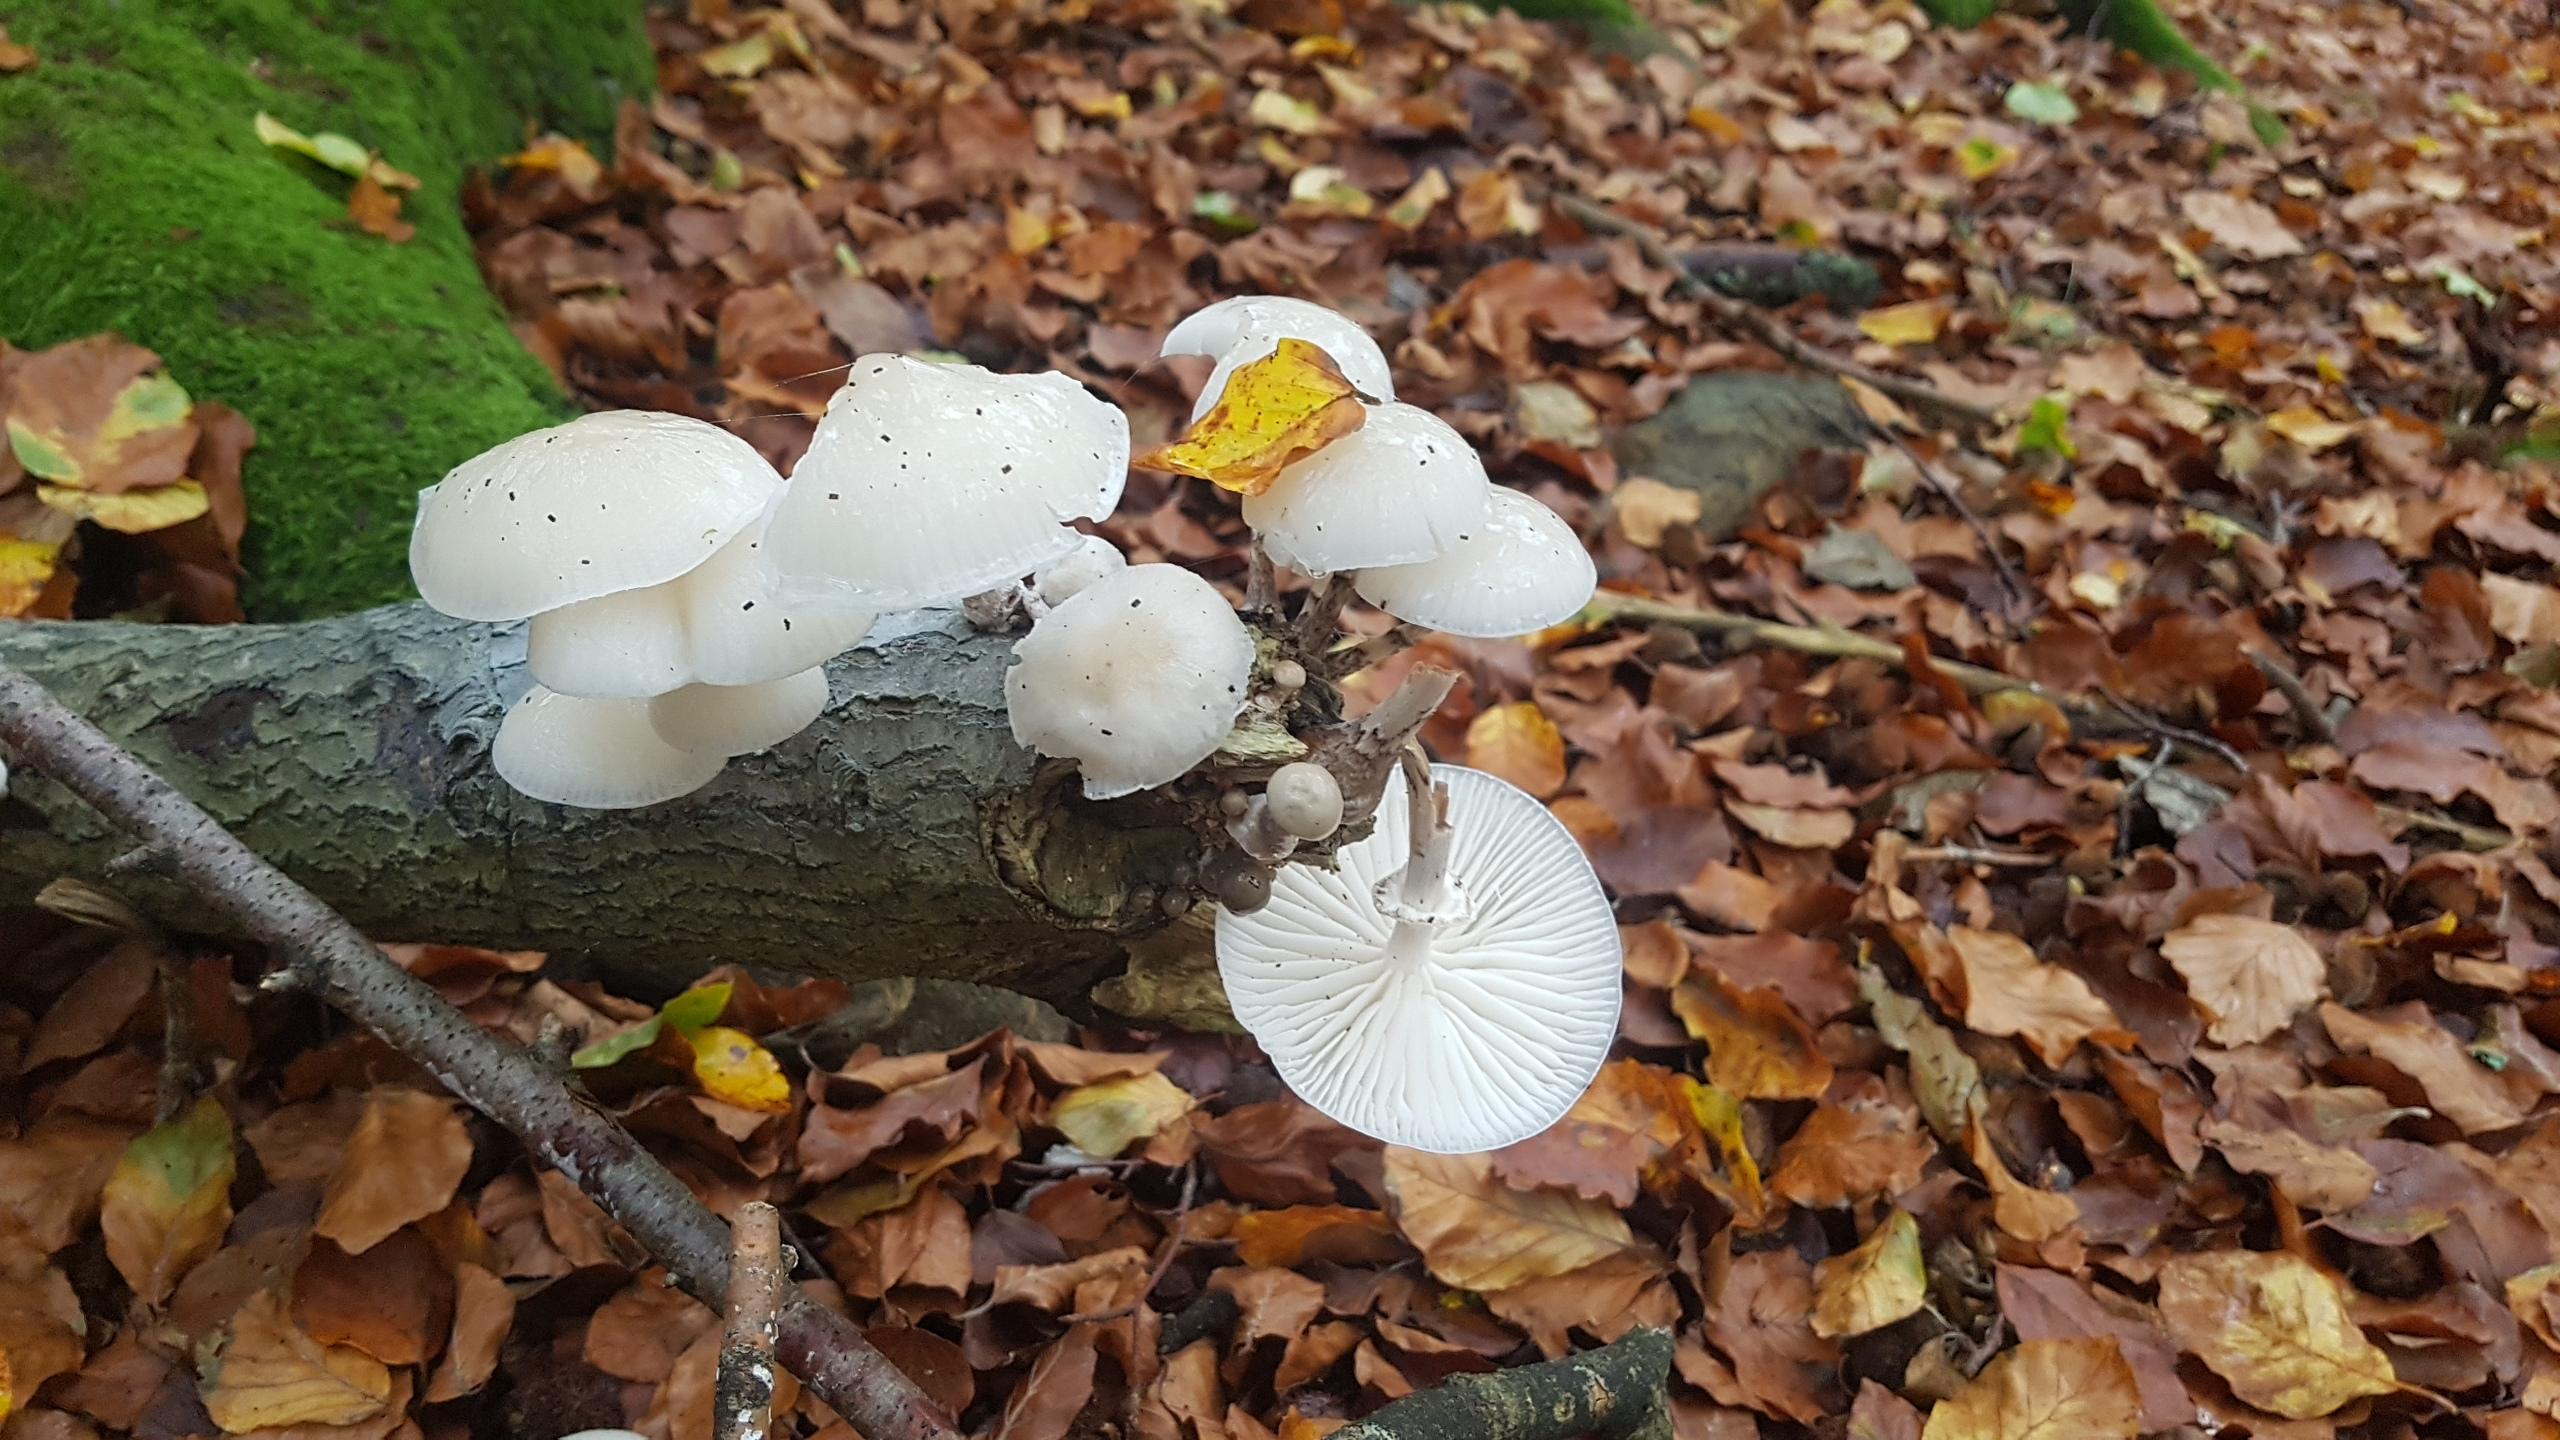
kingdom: Fungi
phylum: Basidiomycota
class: Agaricomycetes
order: Agaricales
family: Physalacriaceae
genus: Mucidula
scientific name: Mucidula mucida
